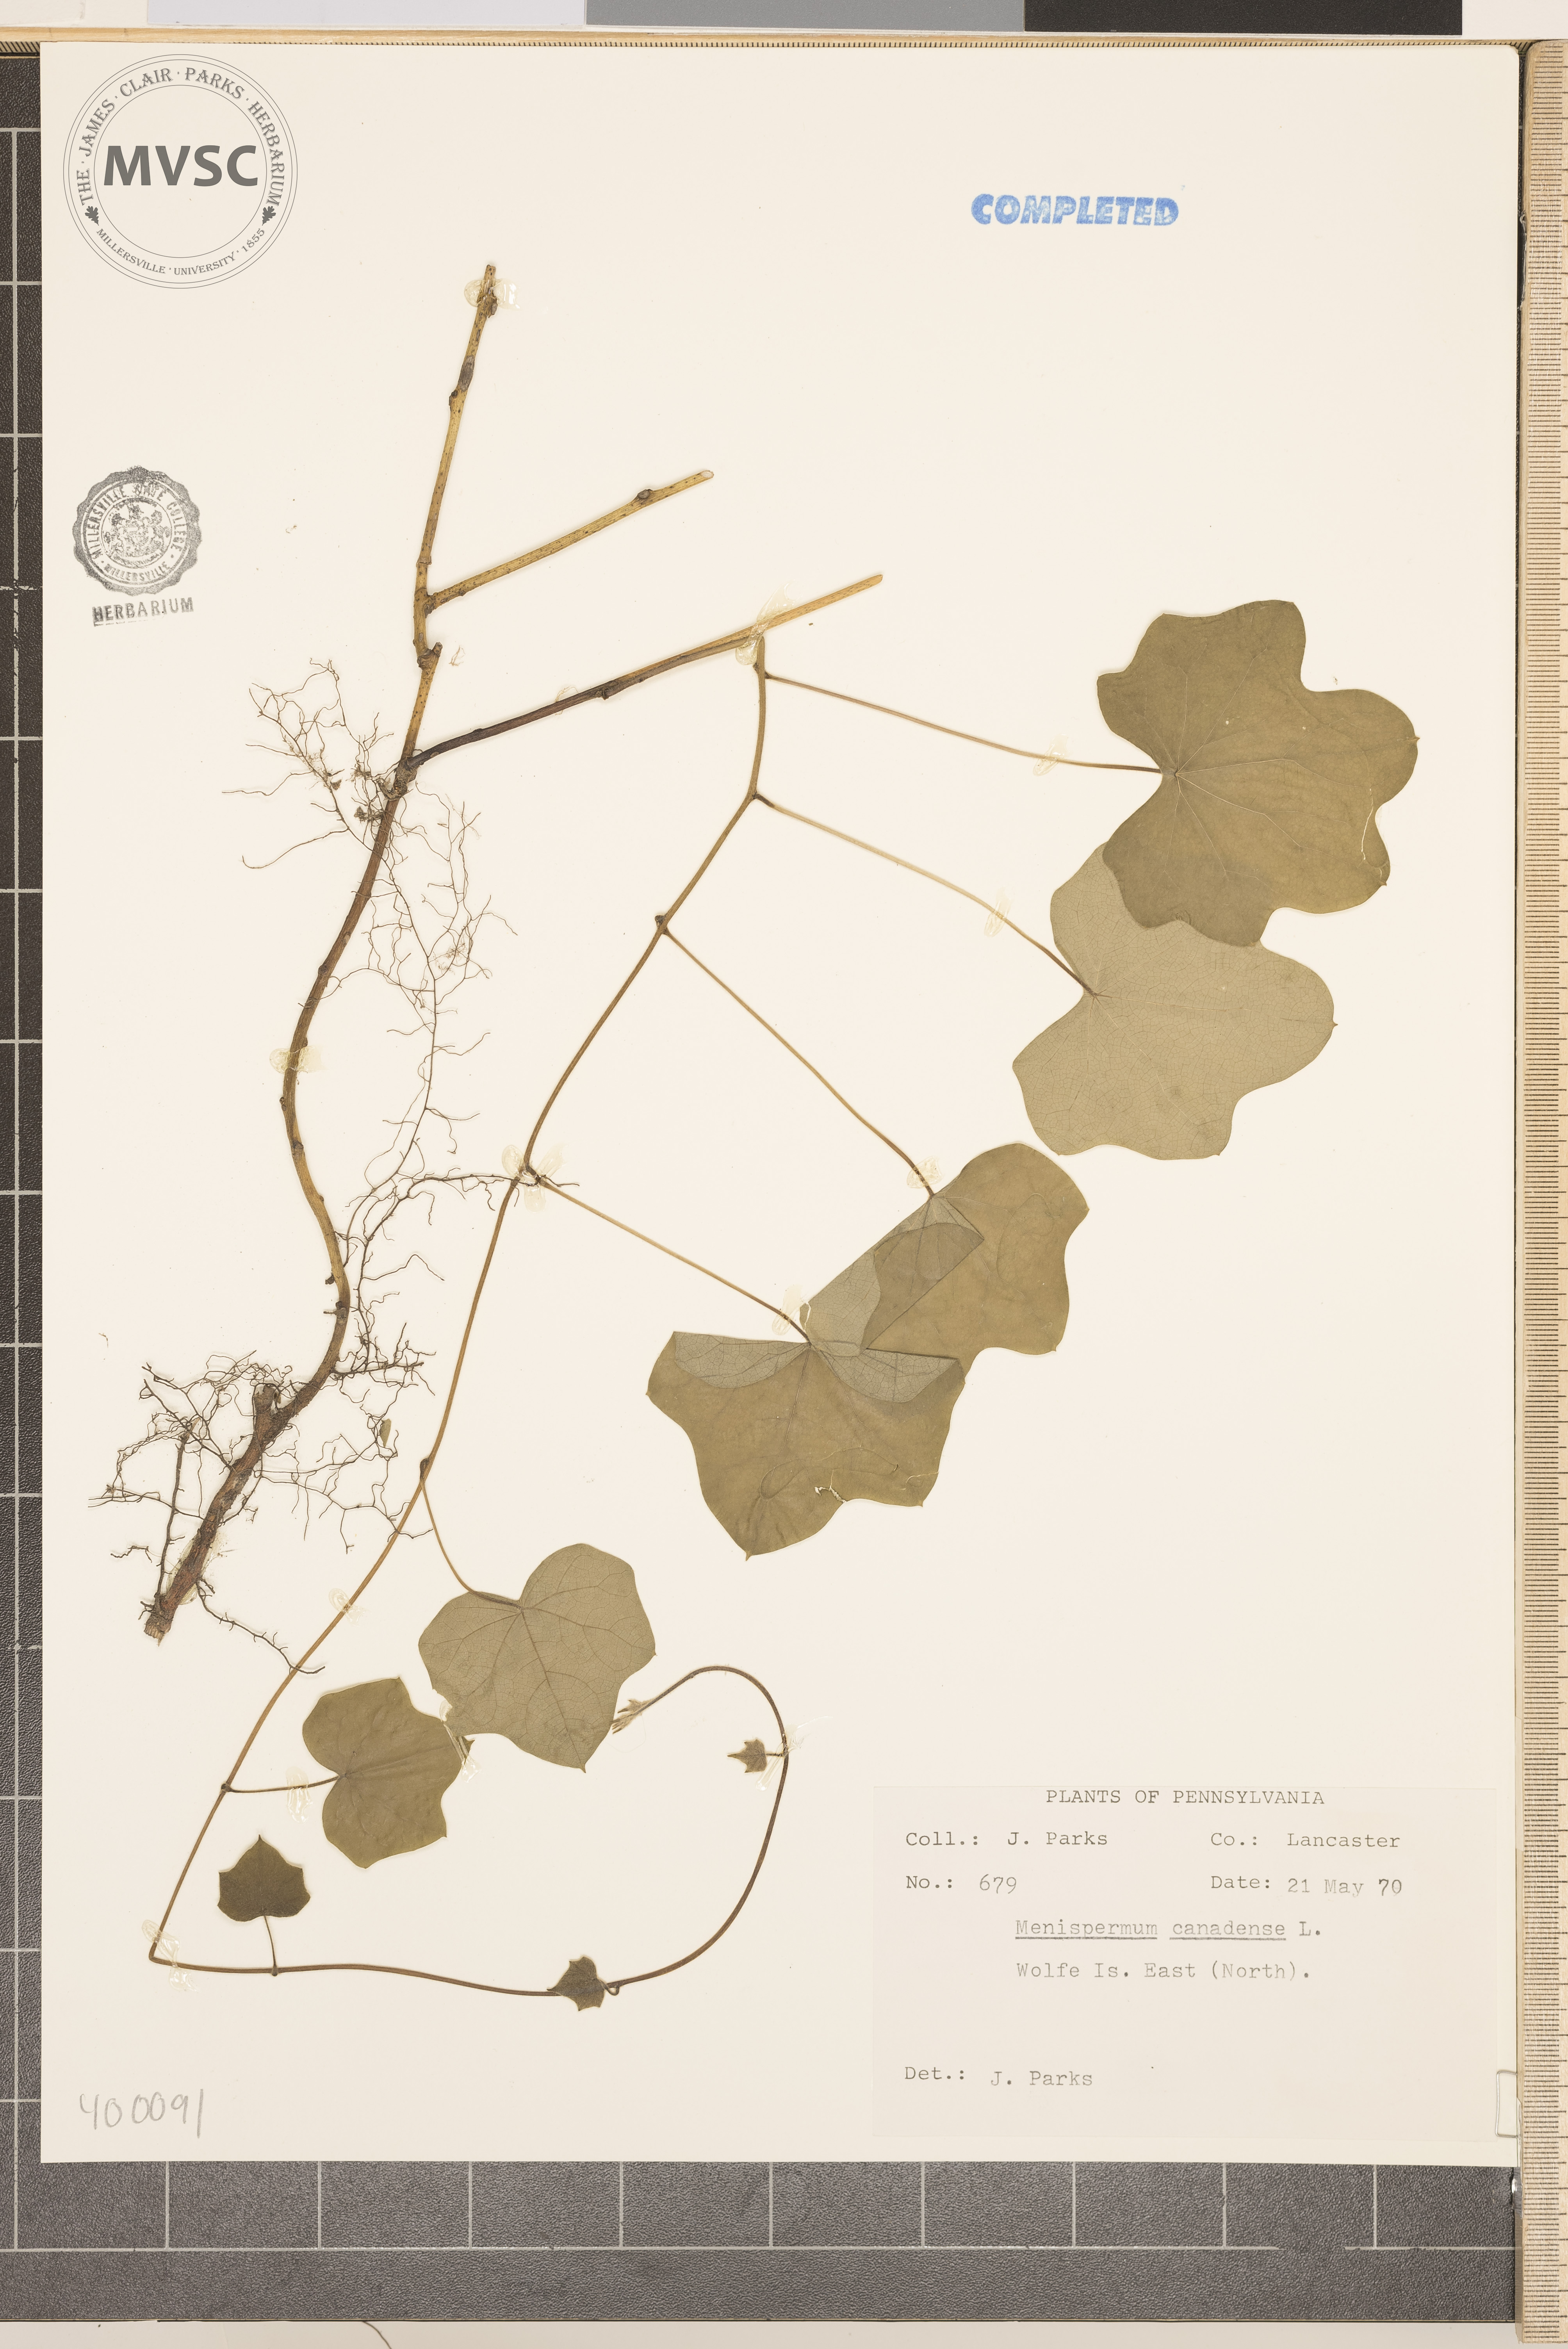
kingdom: Plantae
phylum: Tracheophyta
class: Magnoliopsida
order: Ranunculales
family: Menispermaceae
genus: Menispermum
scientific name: Menispermum canadense
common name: moonseed
